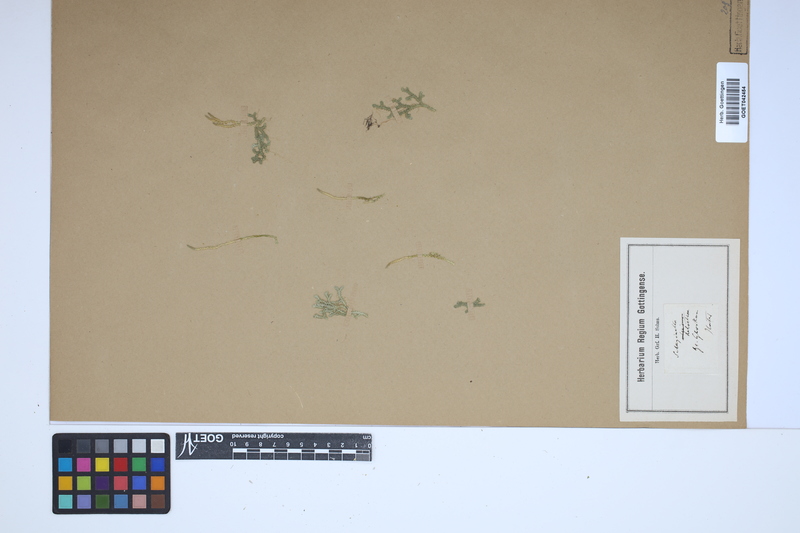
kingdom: Plantae
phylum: Tracheophyta
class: Lycopodiopsida
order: Selaginellales
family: Selaginellaceae
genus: Selaginella
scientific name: Selaginella helvetica
